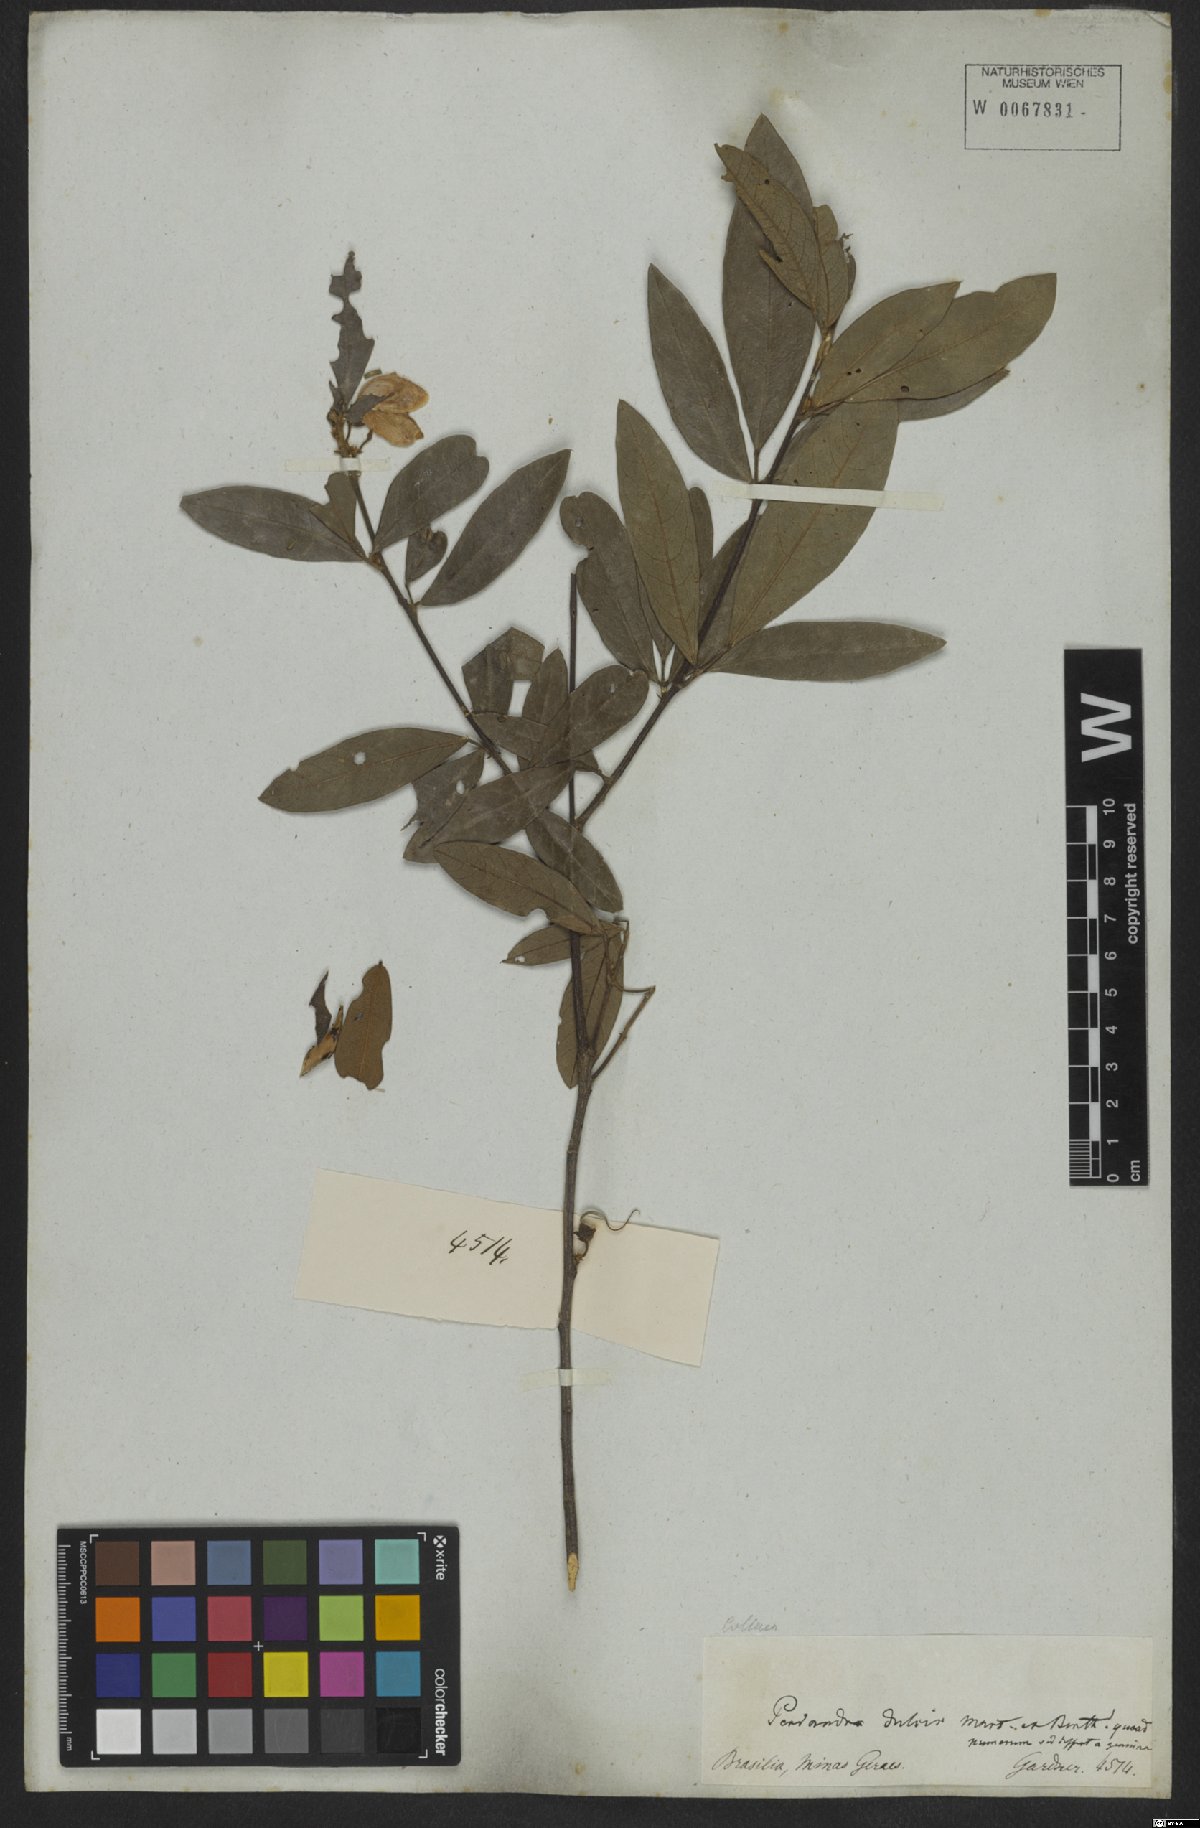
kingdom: Plantae
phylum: Tracheophyta
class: Magnoliopsida
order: Fabales
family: Fabaceae
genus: Periandra
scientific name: Periandra mediterranea
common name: Brazilian licorice
